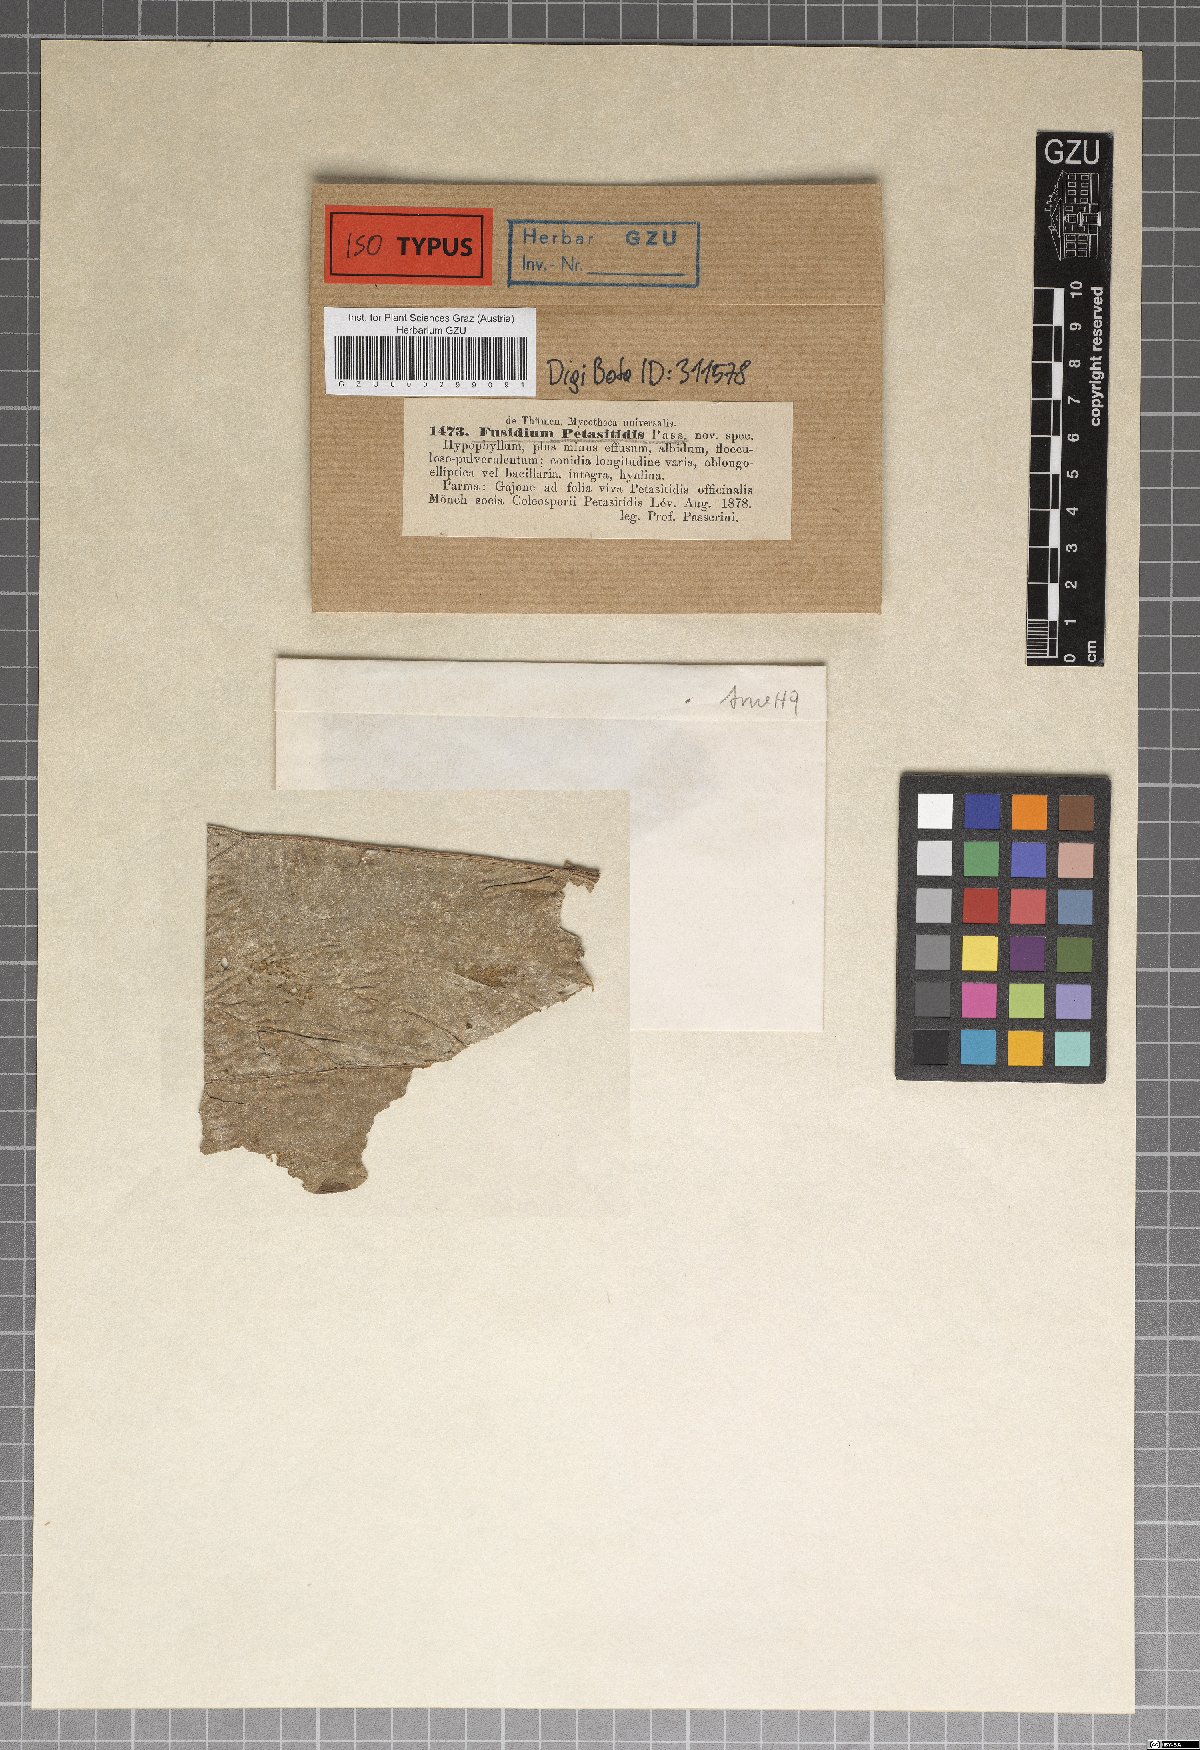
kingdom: Fungi
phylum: Ascomycota
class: Sordariomycetes
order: Hypocreales
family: Nectriaceae
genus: Fusidium
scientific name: Fusidium
